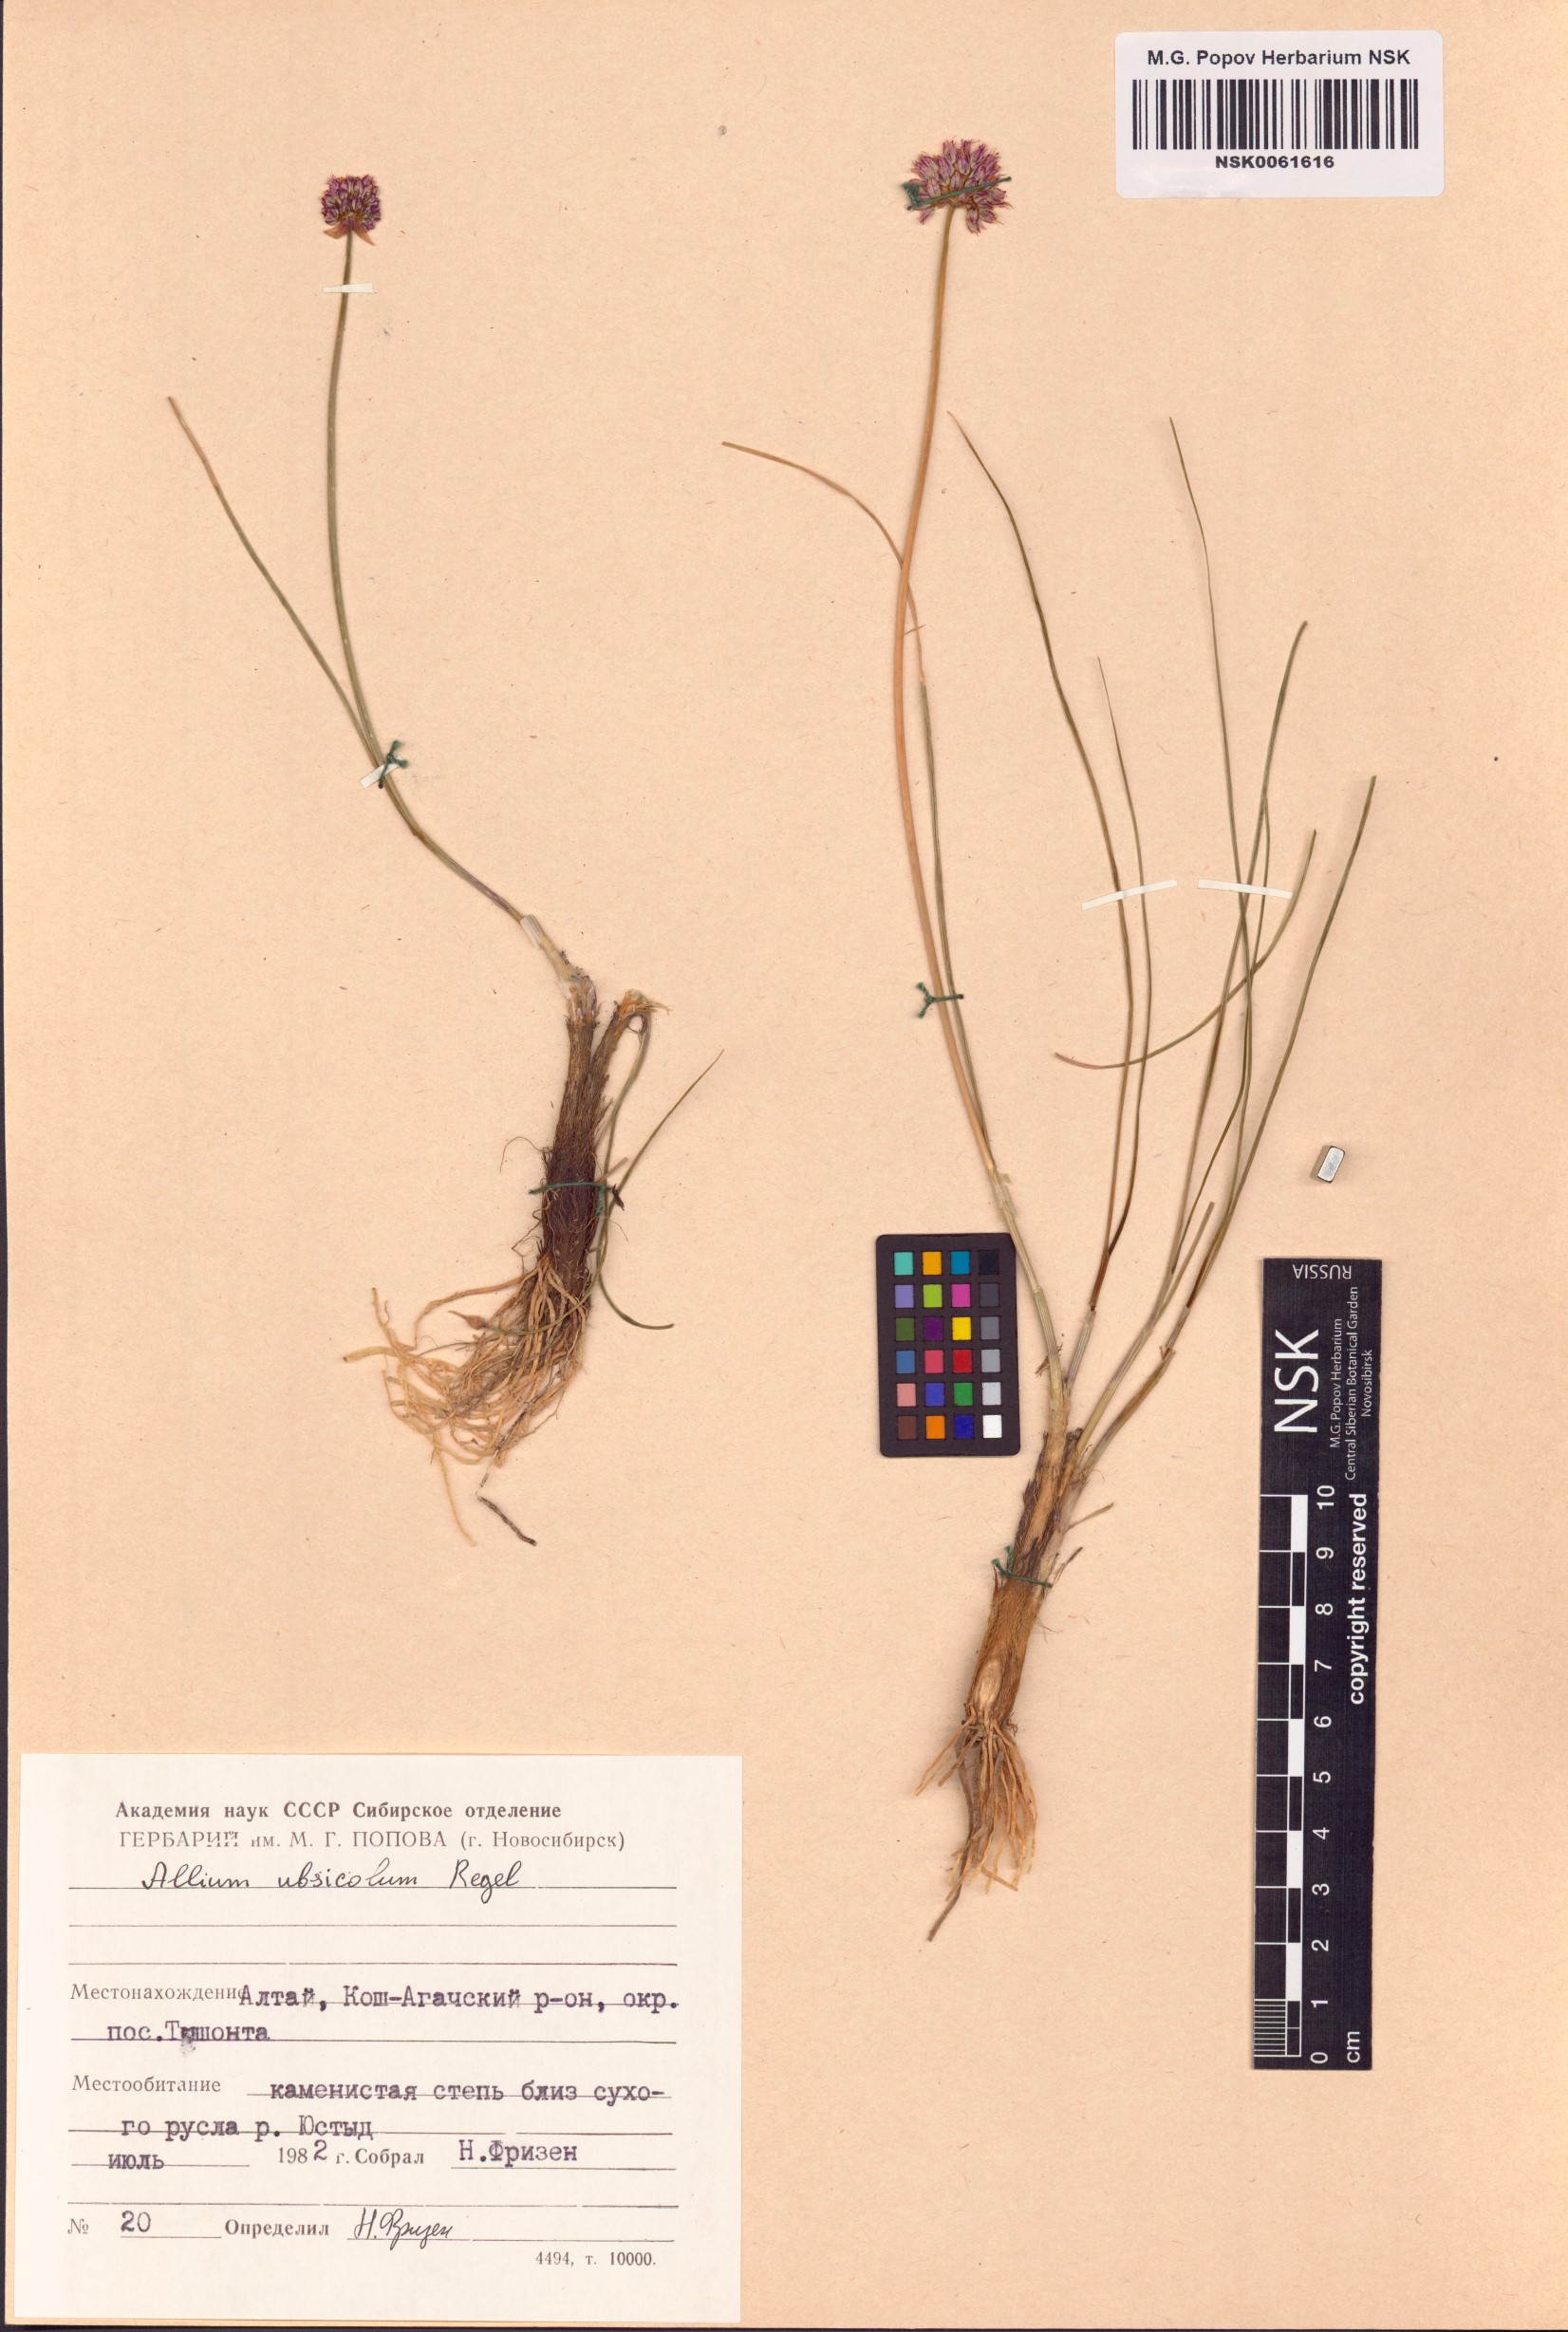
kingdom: Plantae
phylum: Tracheophyta
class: Liliopsida
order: Asparagales
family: Amaryllidaceae
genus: Allium
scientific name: Allium ubsicola
